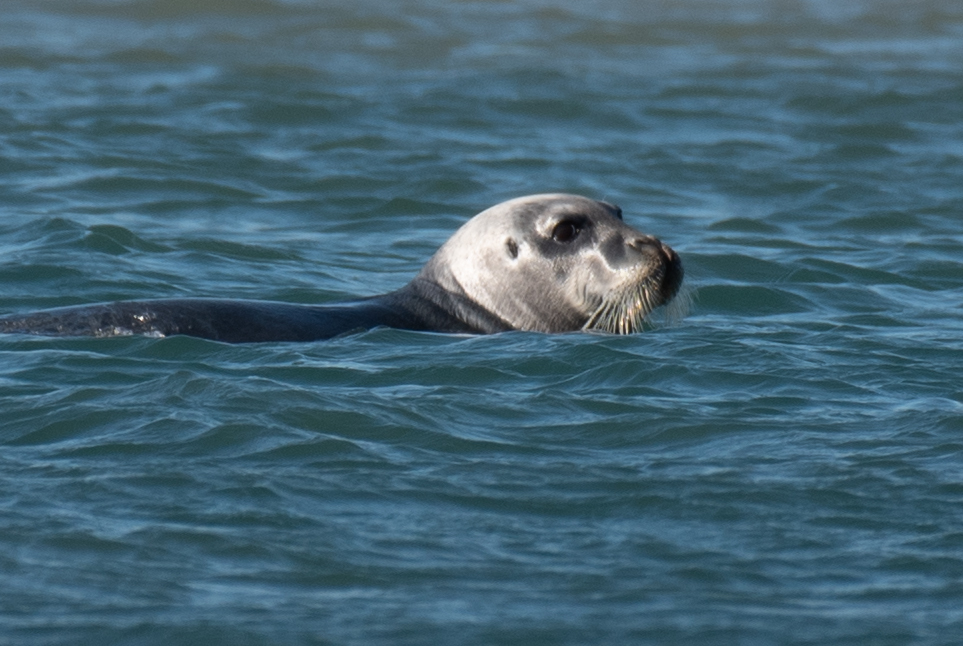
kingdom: Animalia
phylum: Chordata
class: Mammalia
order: Carnivora
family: Phocidae
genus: Erignathus
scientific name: Erignathus barbatus
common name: Bearded seal
